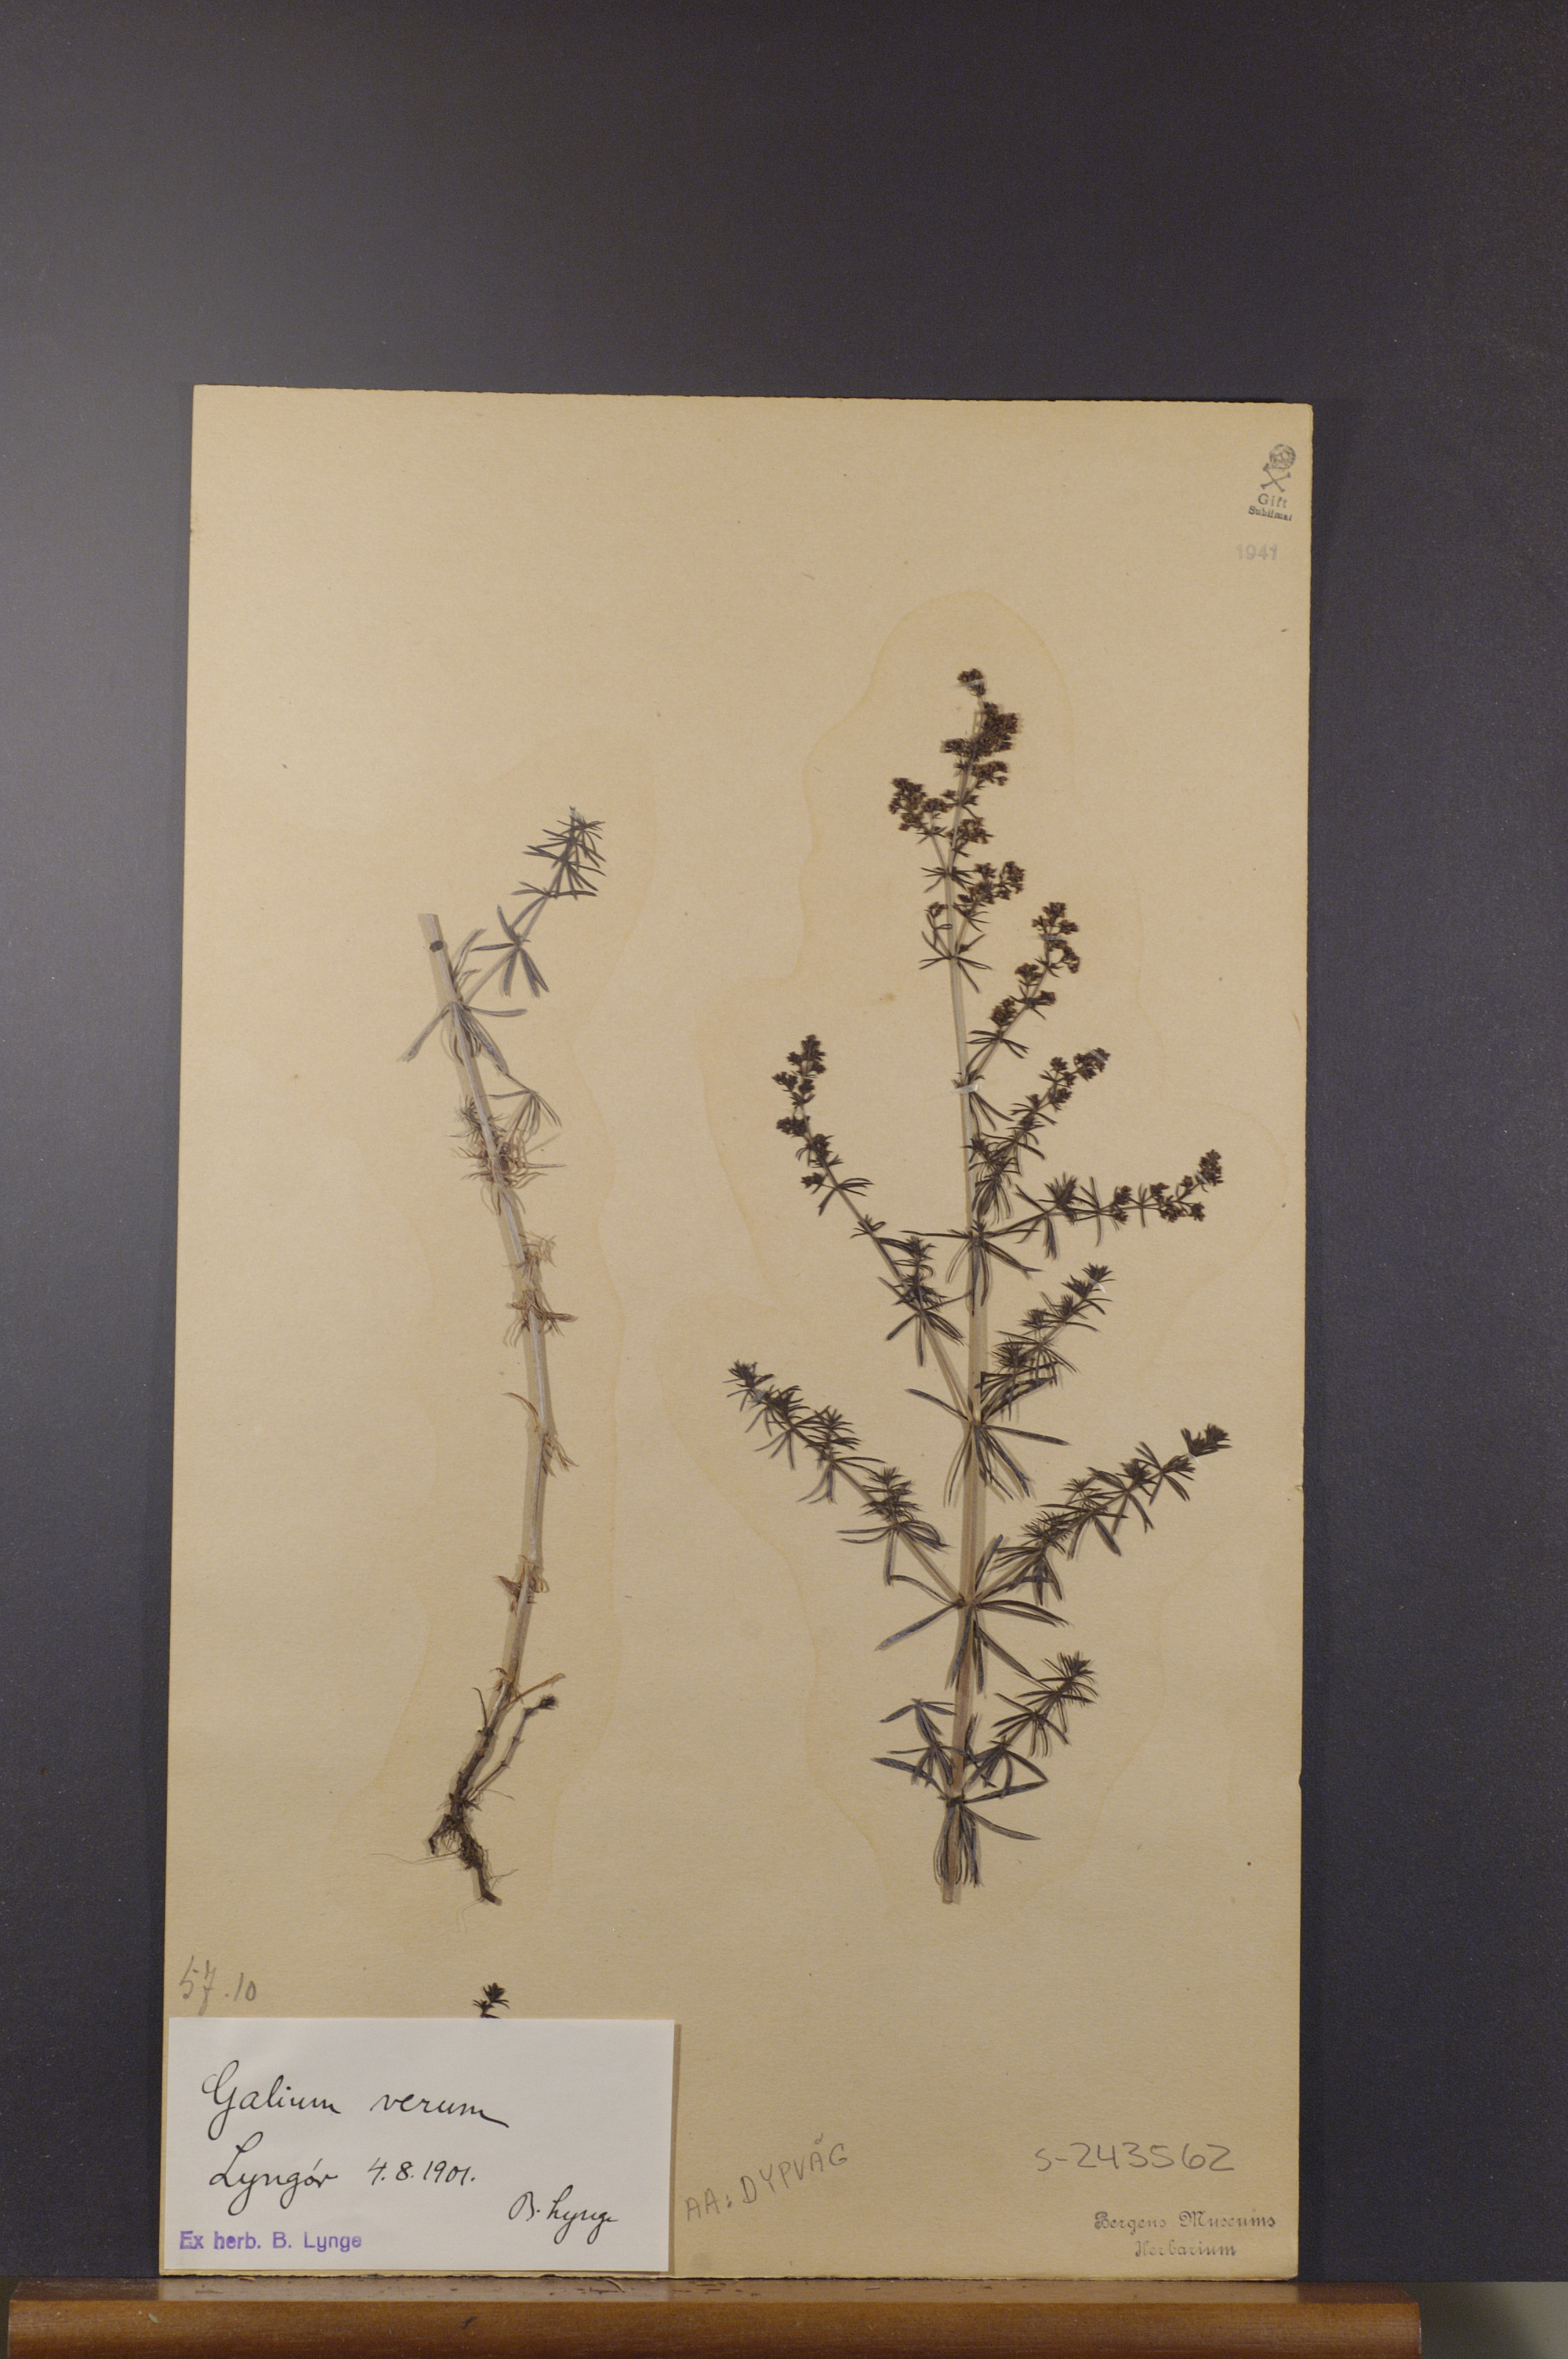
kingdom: Plantae
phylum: Tracheophyta
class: Magnoliopsida
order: Gentianales
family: Rubiaceae
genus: Galium
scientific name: Galium verum
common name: Lady's bedstraw
